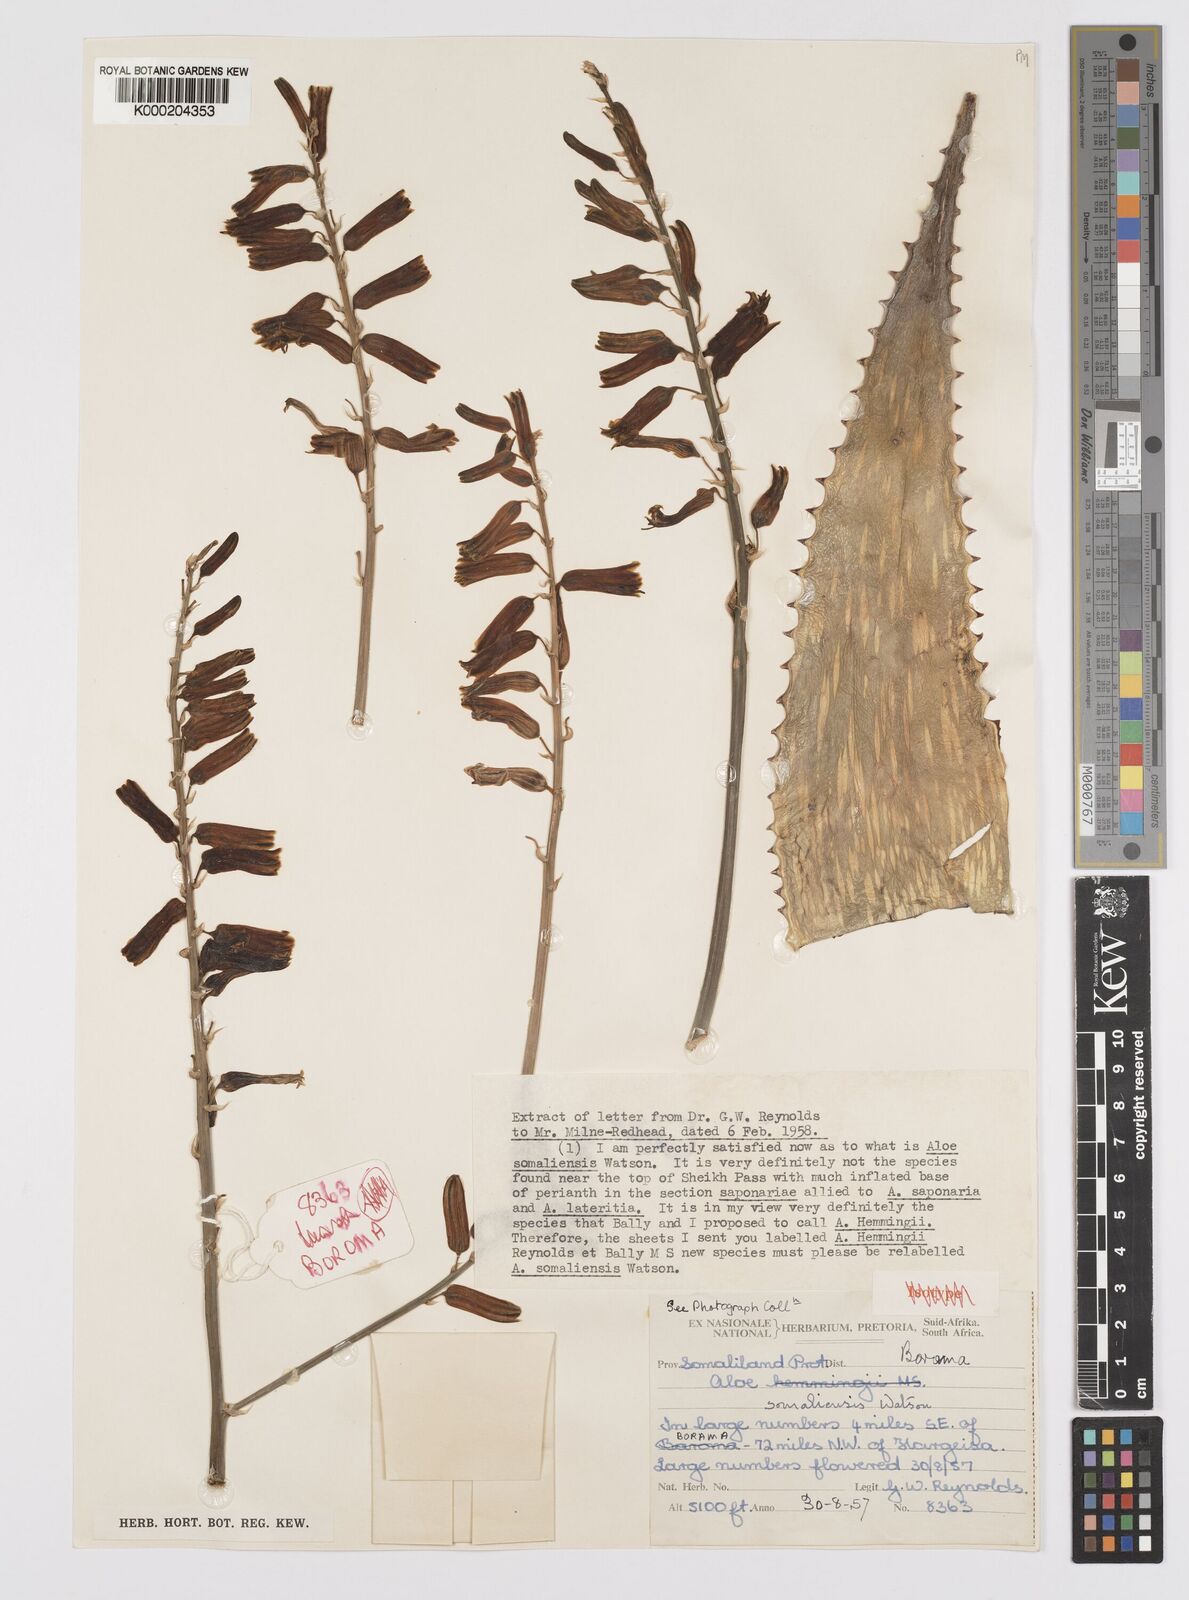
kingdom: Plantae
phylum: Tracheophyta
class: Liliopsida
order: Asparagales
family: Asphodelaceae
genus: Aloe
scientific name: Aloe somaliensis
